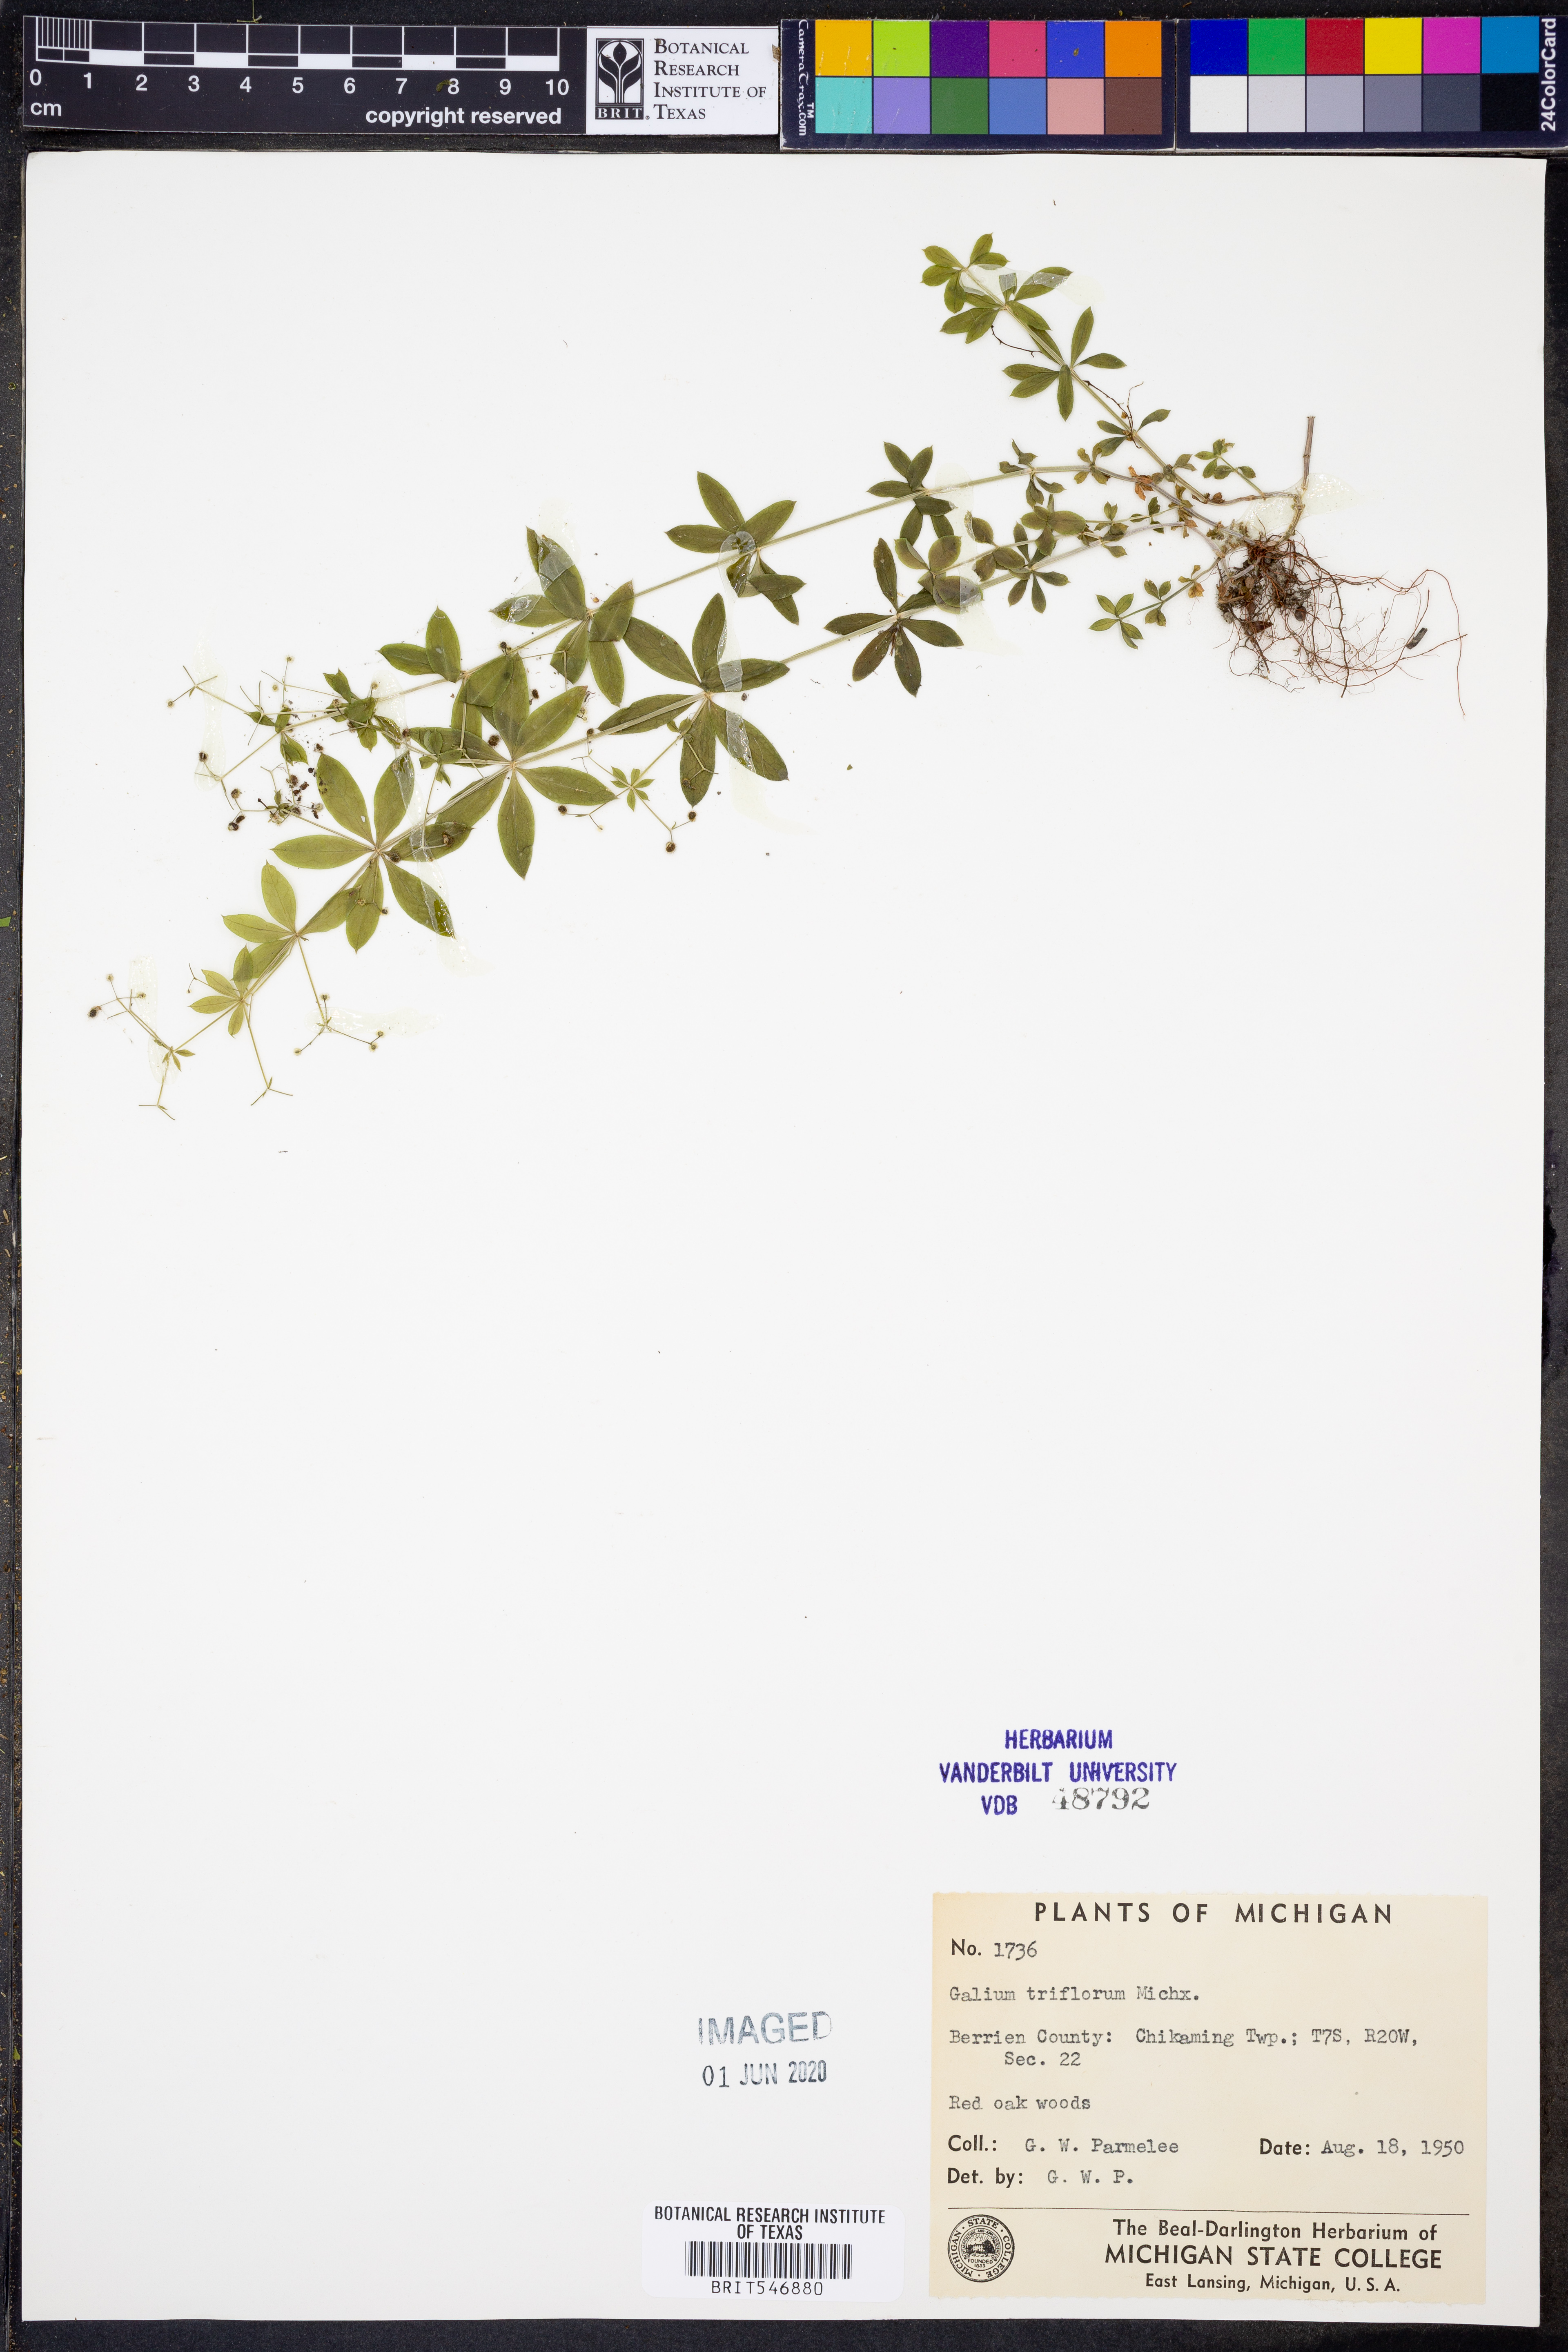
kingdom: Plantae
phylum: Tracheophyta
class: Magnoliopsida
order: Gentianales
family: Rubiaceae
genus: Galium
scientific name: Galium triflorum
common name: Fragrant bedstraw
